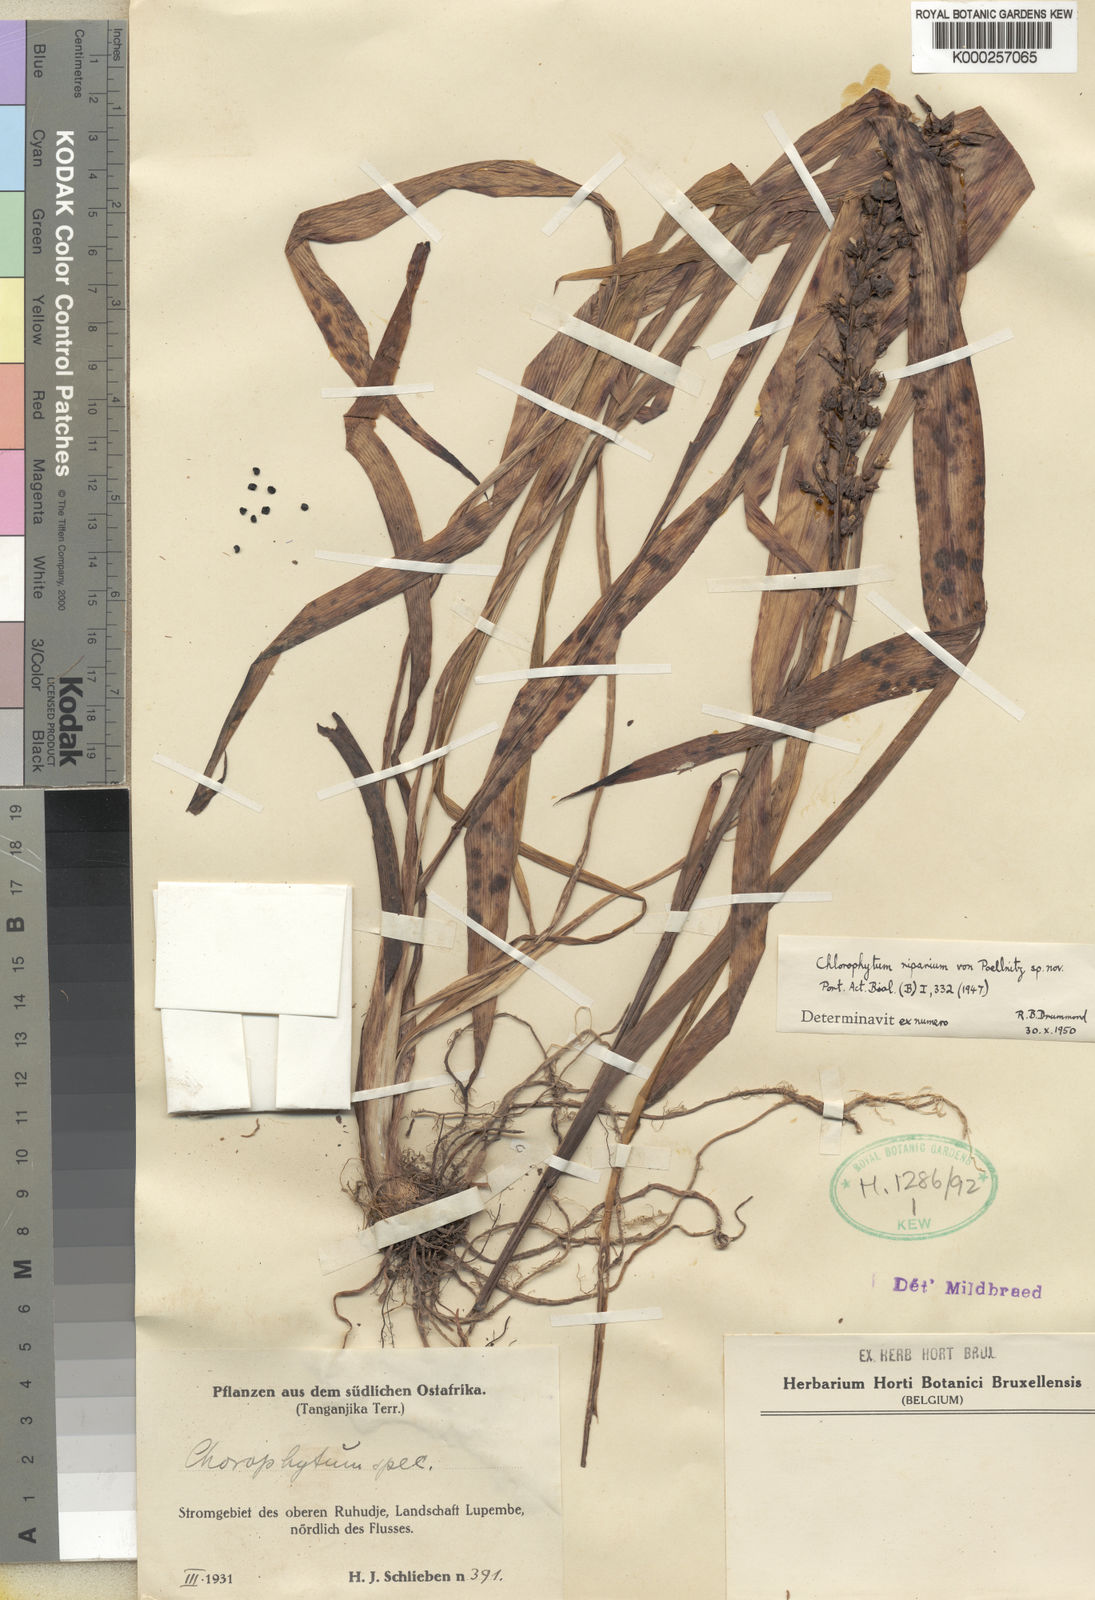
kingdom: Plantae
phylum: Tracheophyta
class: Liliopsida
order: Asparagales
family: Asparagaceae
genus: Chlorophytum
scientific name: Chlorophytum gallabatense
